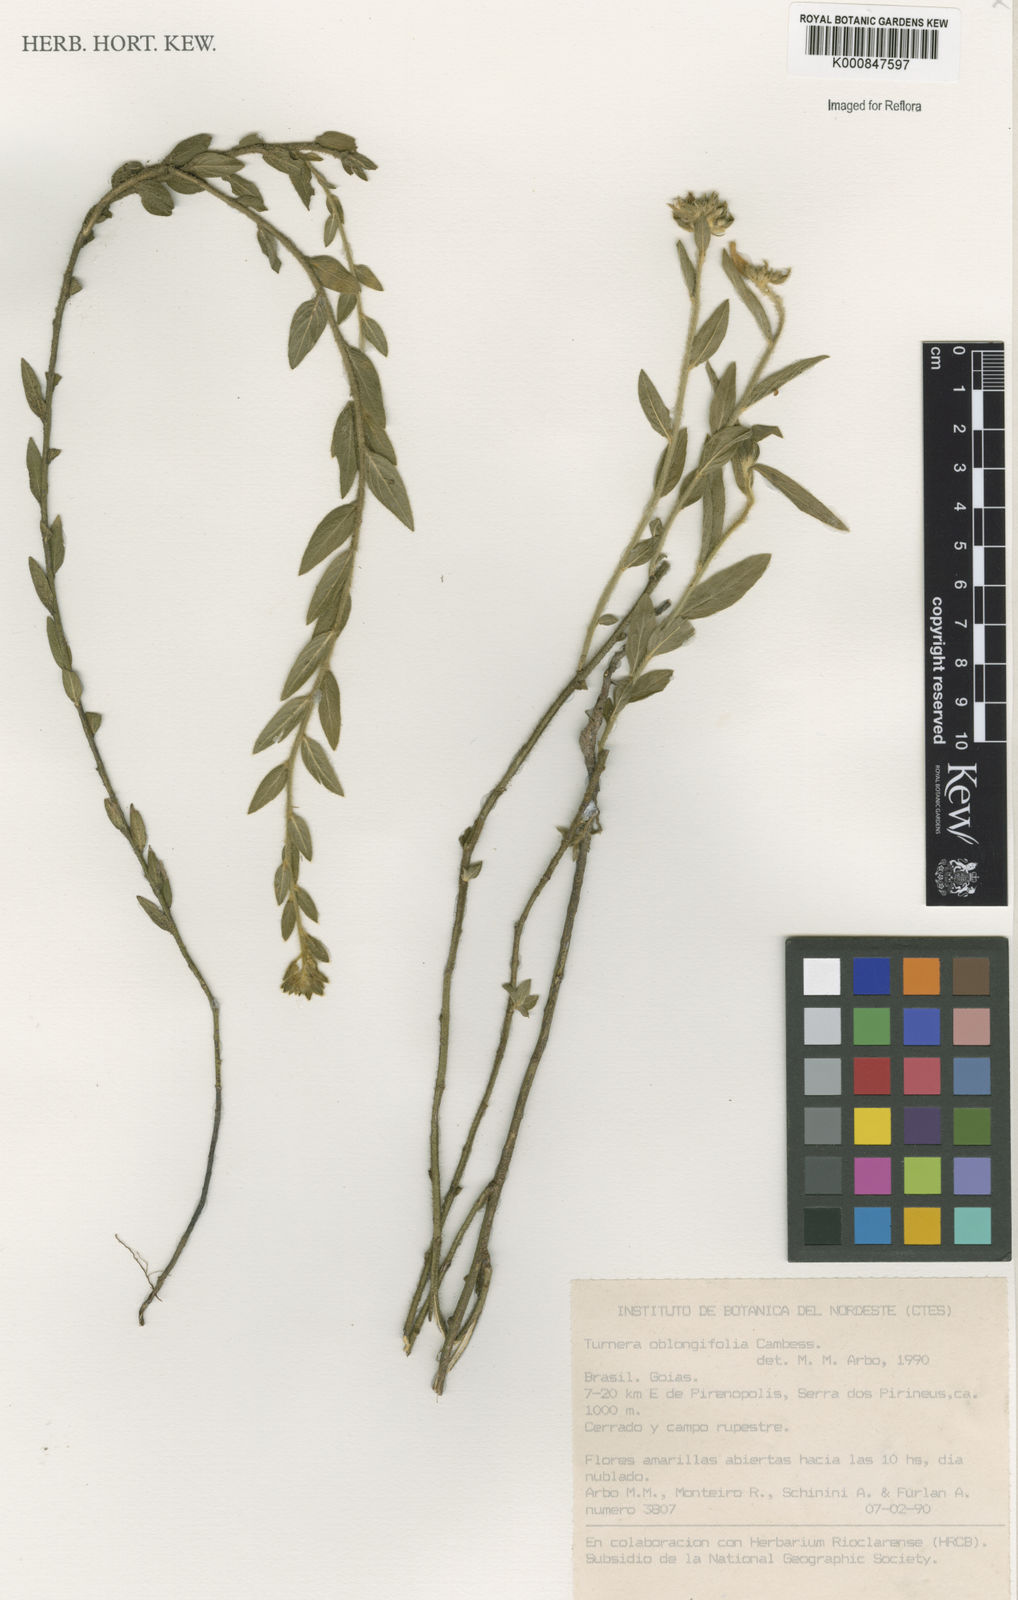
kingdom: Plantae
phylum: Tracheophyta
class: Magnoliopsida
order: Malpighiales
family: Turneraceae
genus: Turnera
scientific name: Turnera oblongifolia
